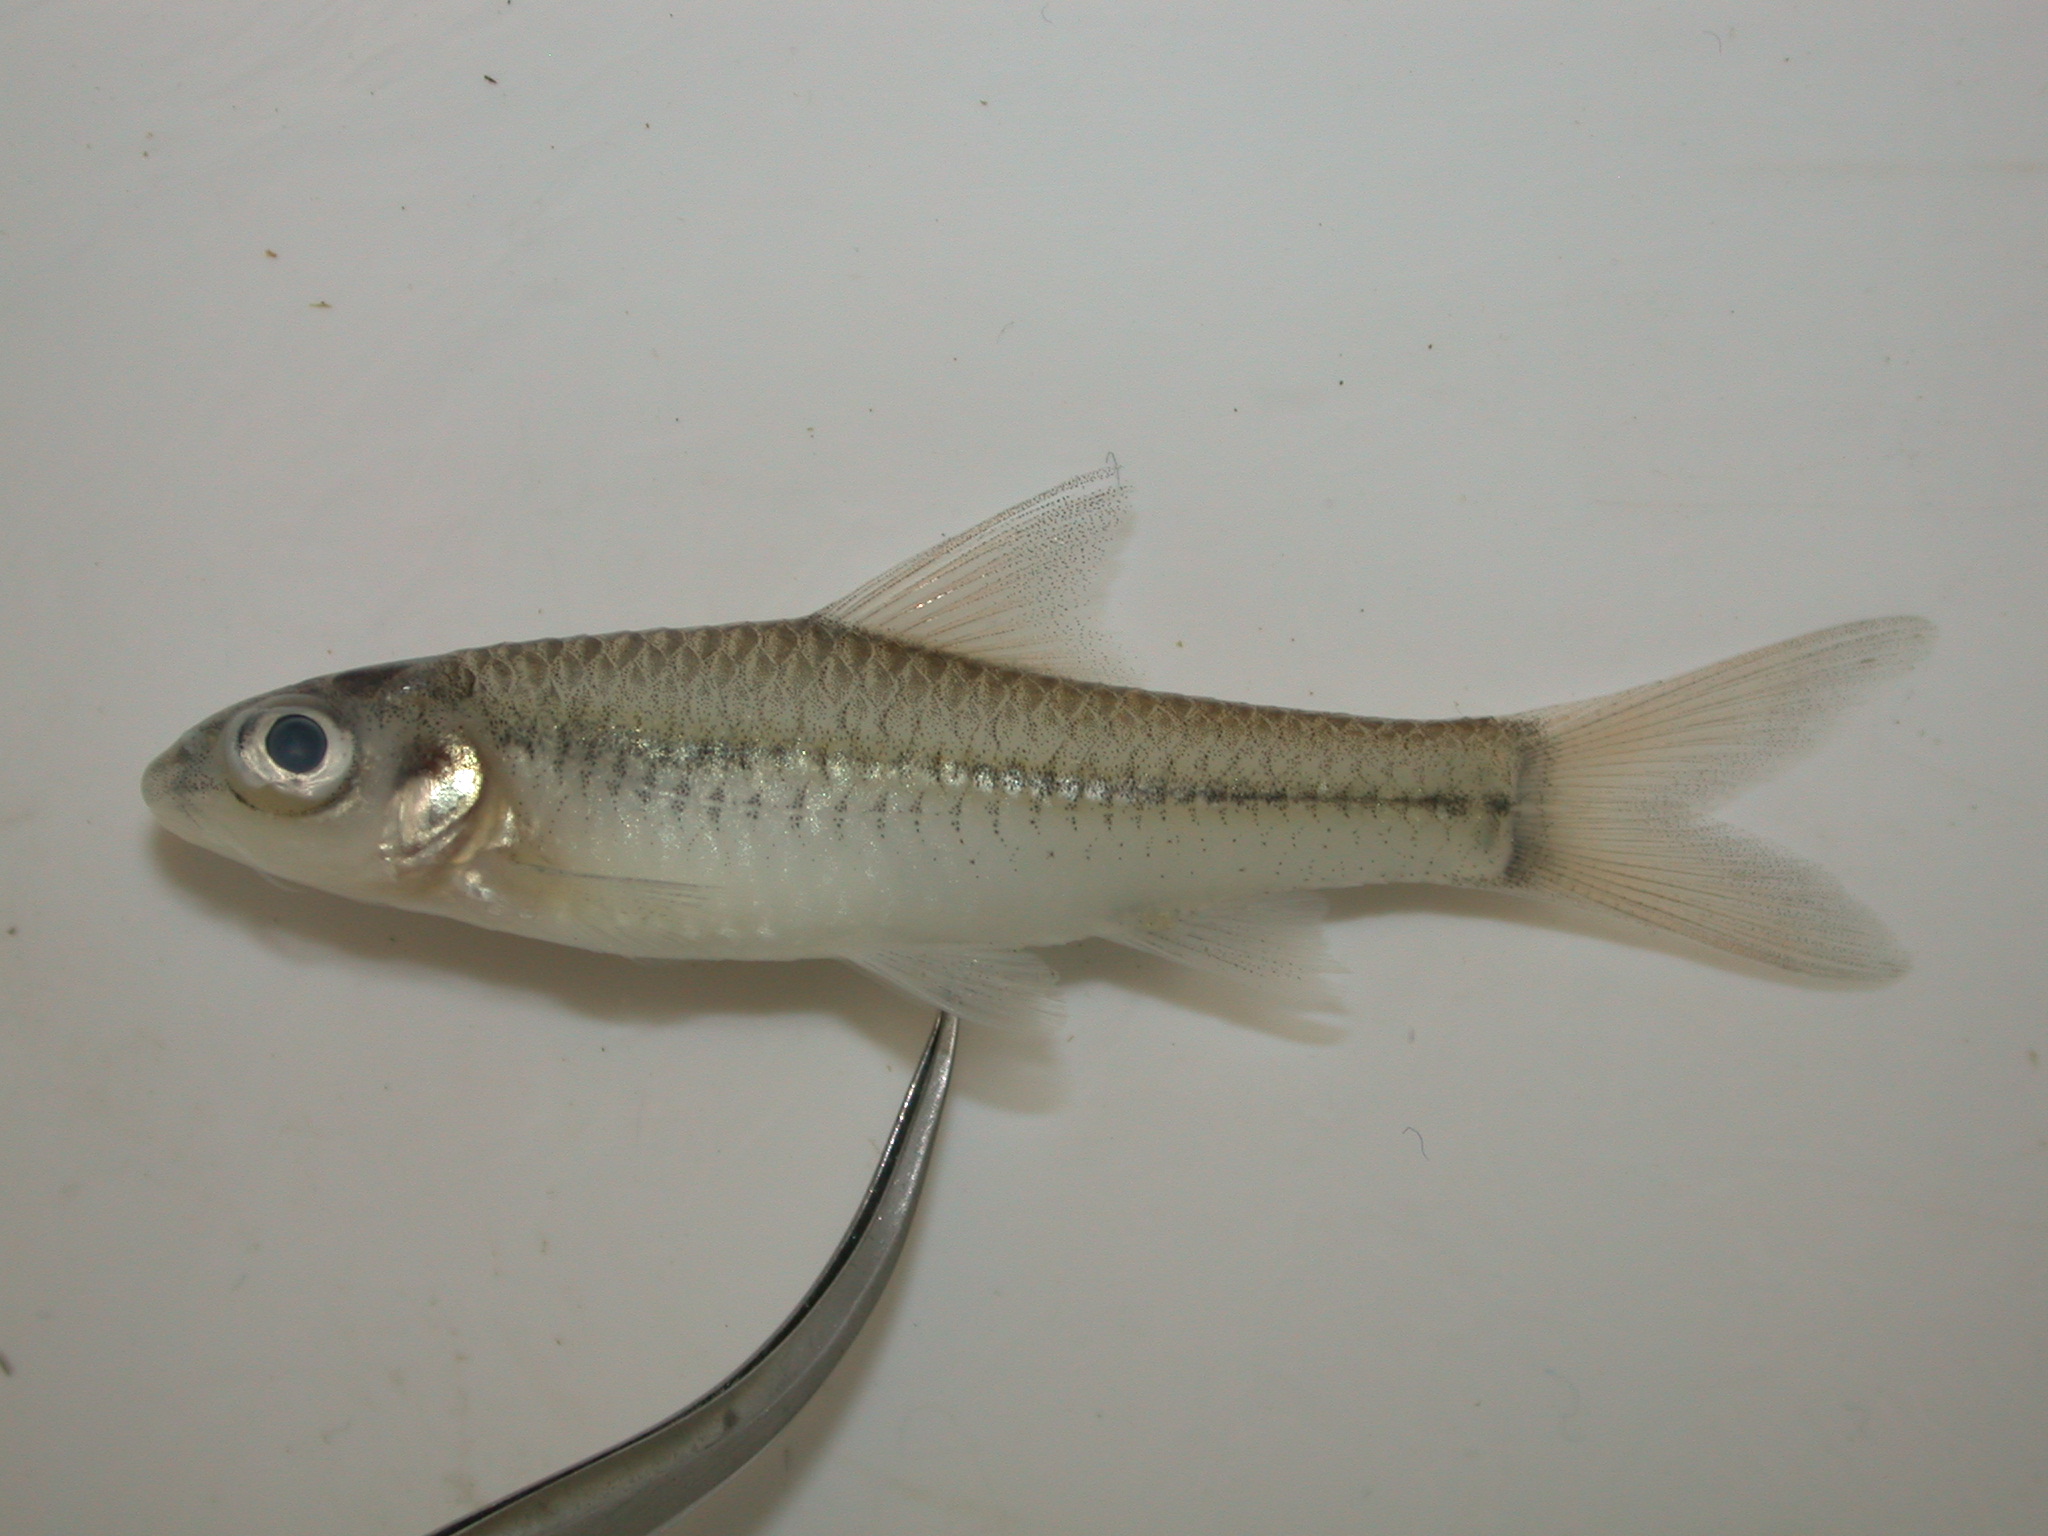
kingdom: Animalia
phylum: Chordata
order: Cypriniformes
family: Cyprinidae
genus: Enteromius
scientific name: Enteromius unitaeniatus
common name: Longbeard barb
